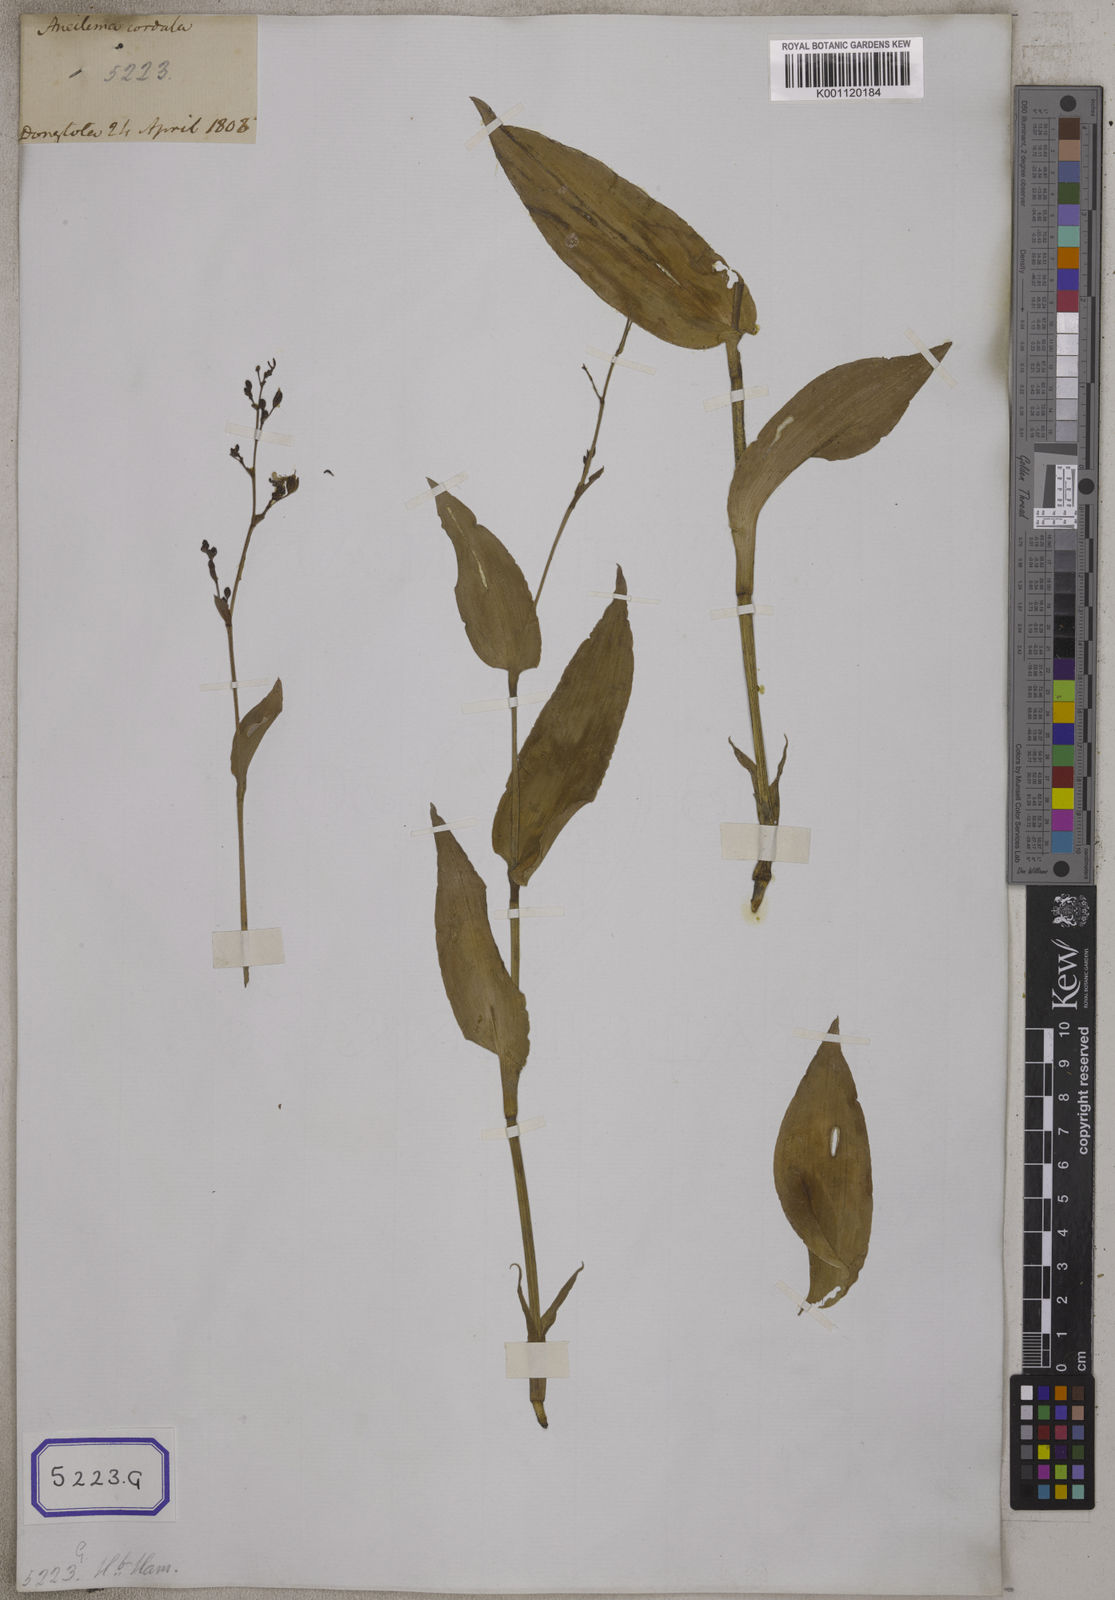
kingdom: Plantae
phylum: Tracheophyta
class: Liliopsida
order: Commelinales
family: Commelinaceae
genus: Murdannia
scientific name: Murdannia japonica
